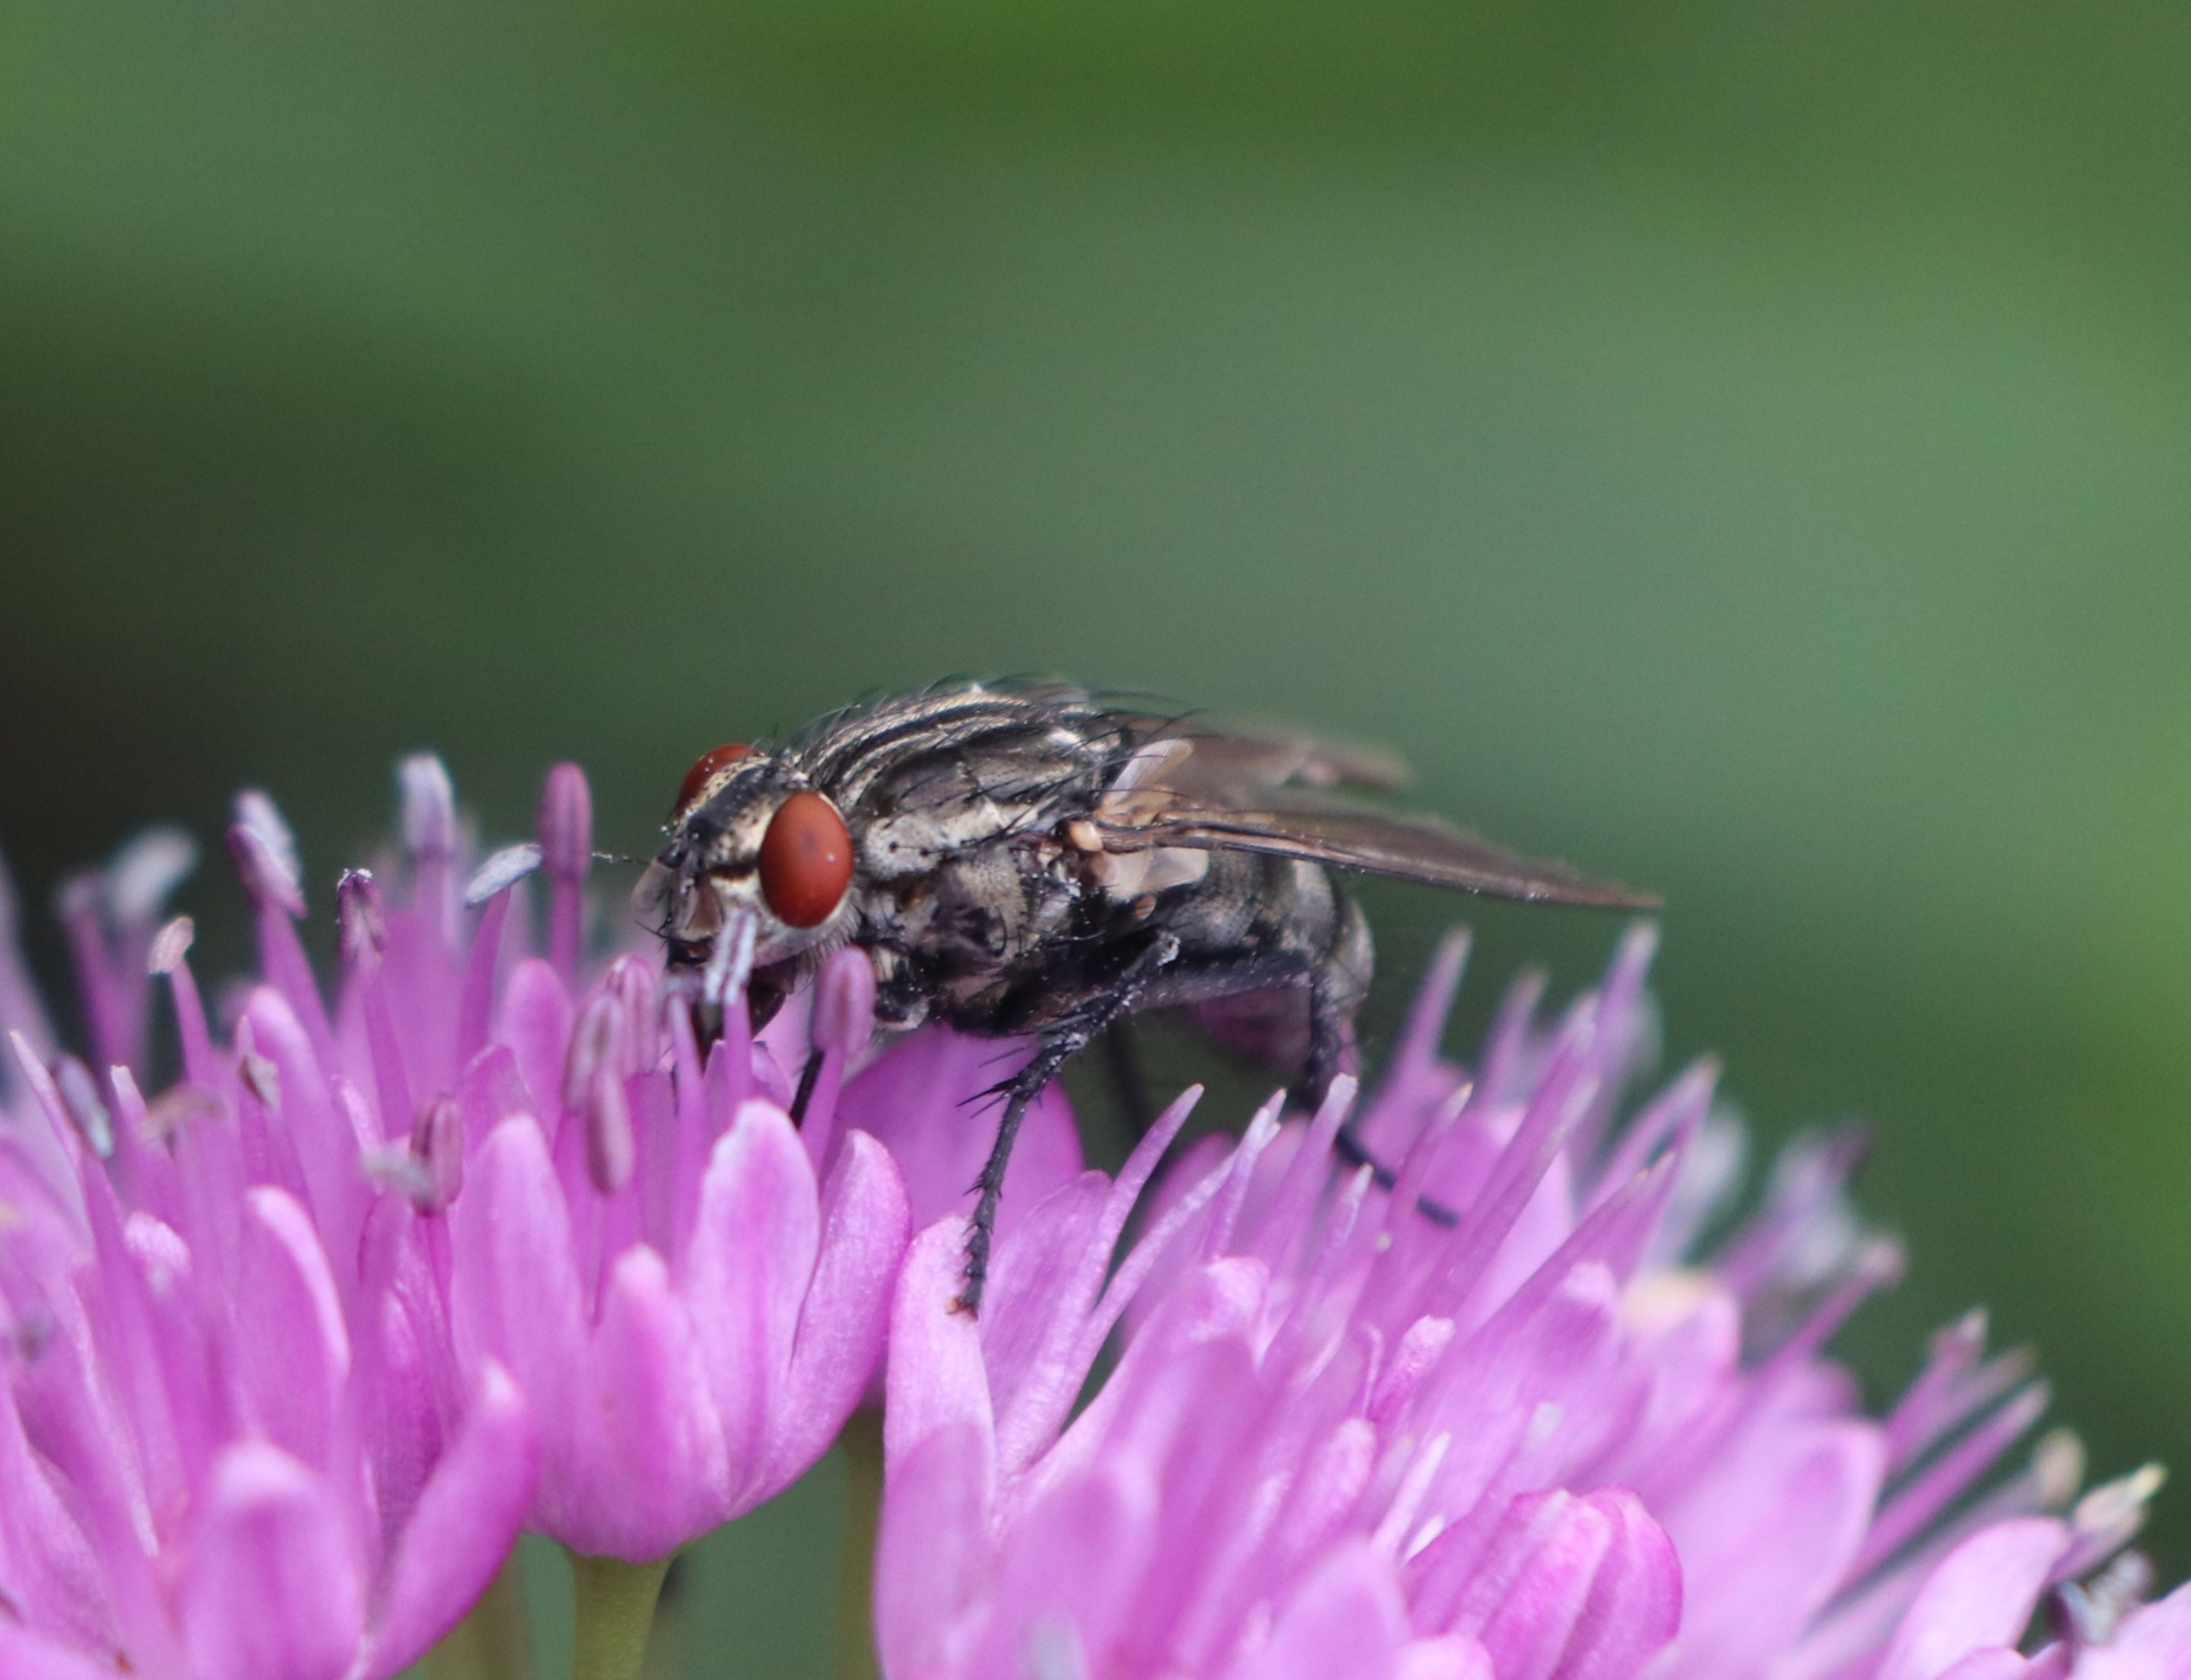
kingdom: Animalia
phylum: Arthropoda
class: Insecta
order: Diptera
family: Sarcophagidae
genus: Sarcophaga
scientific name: Sarcophaga
